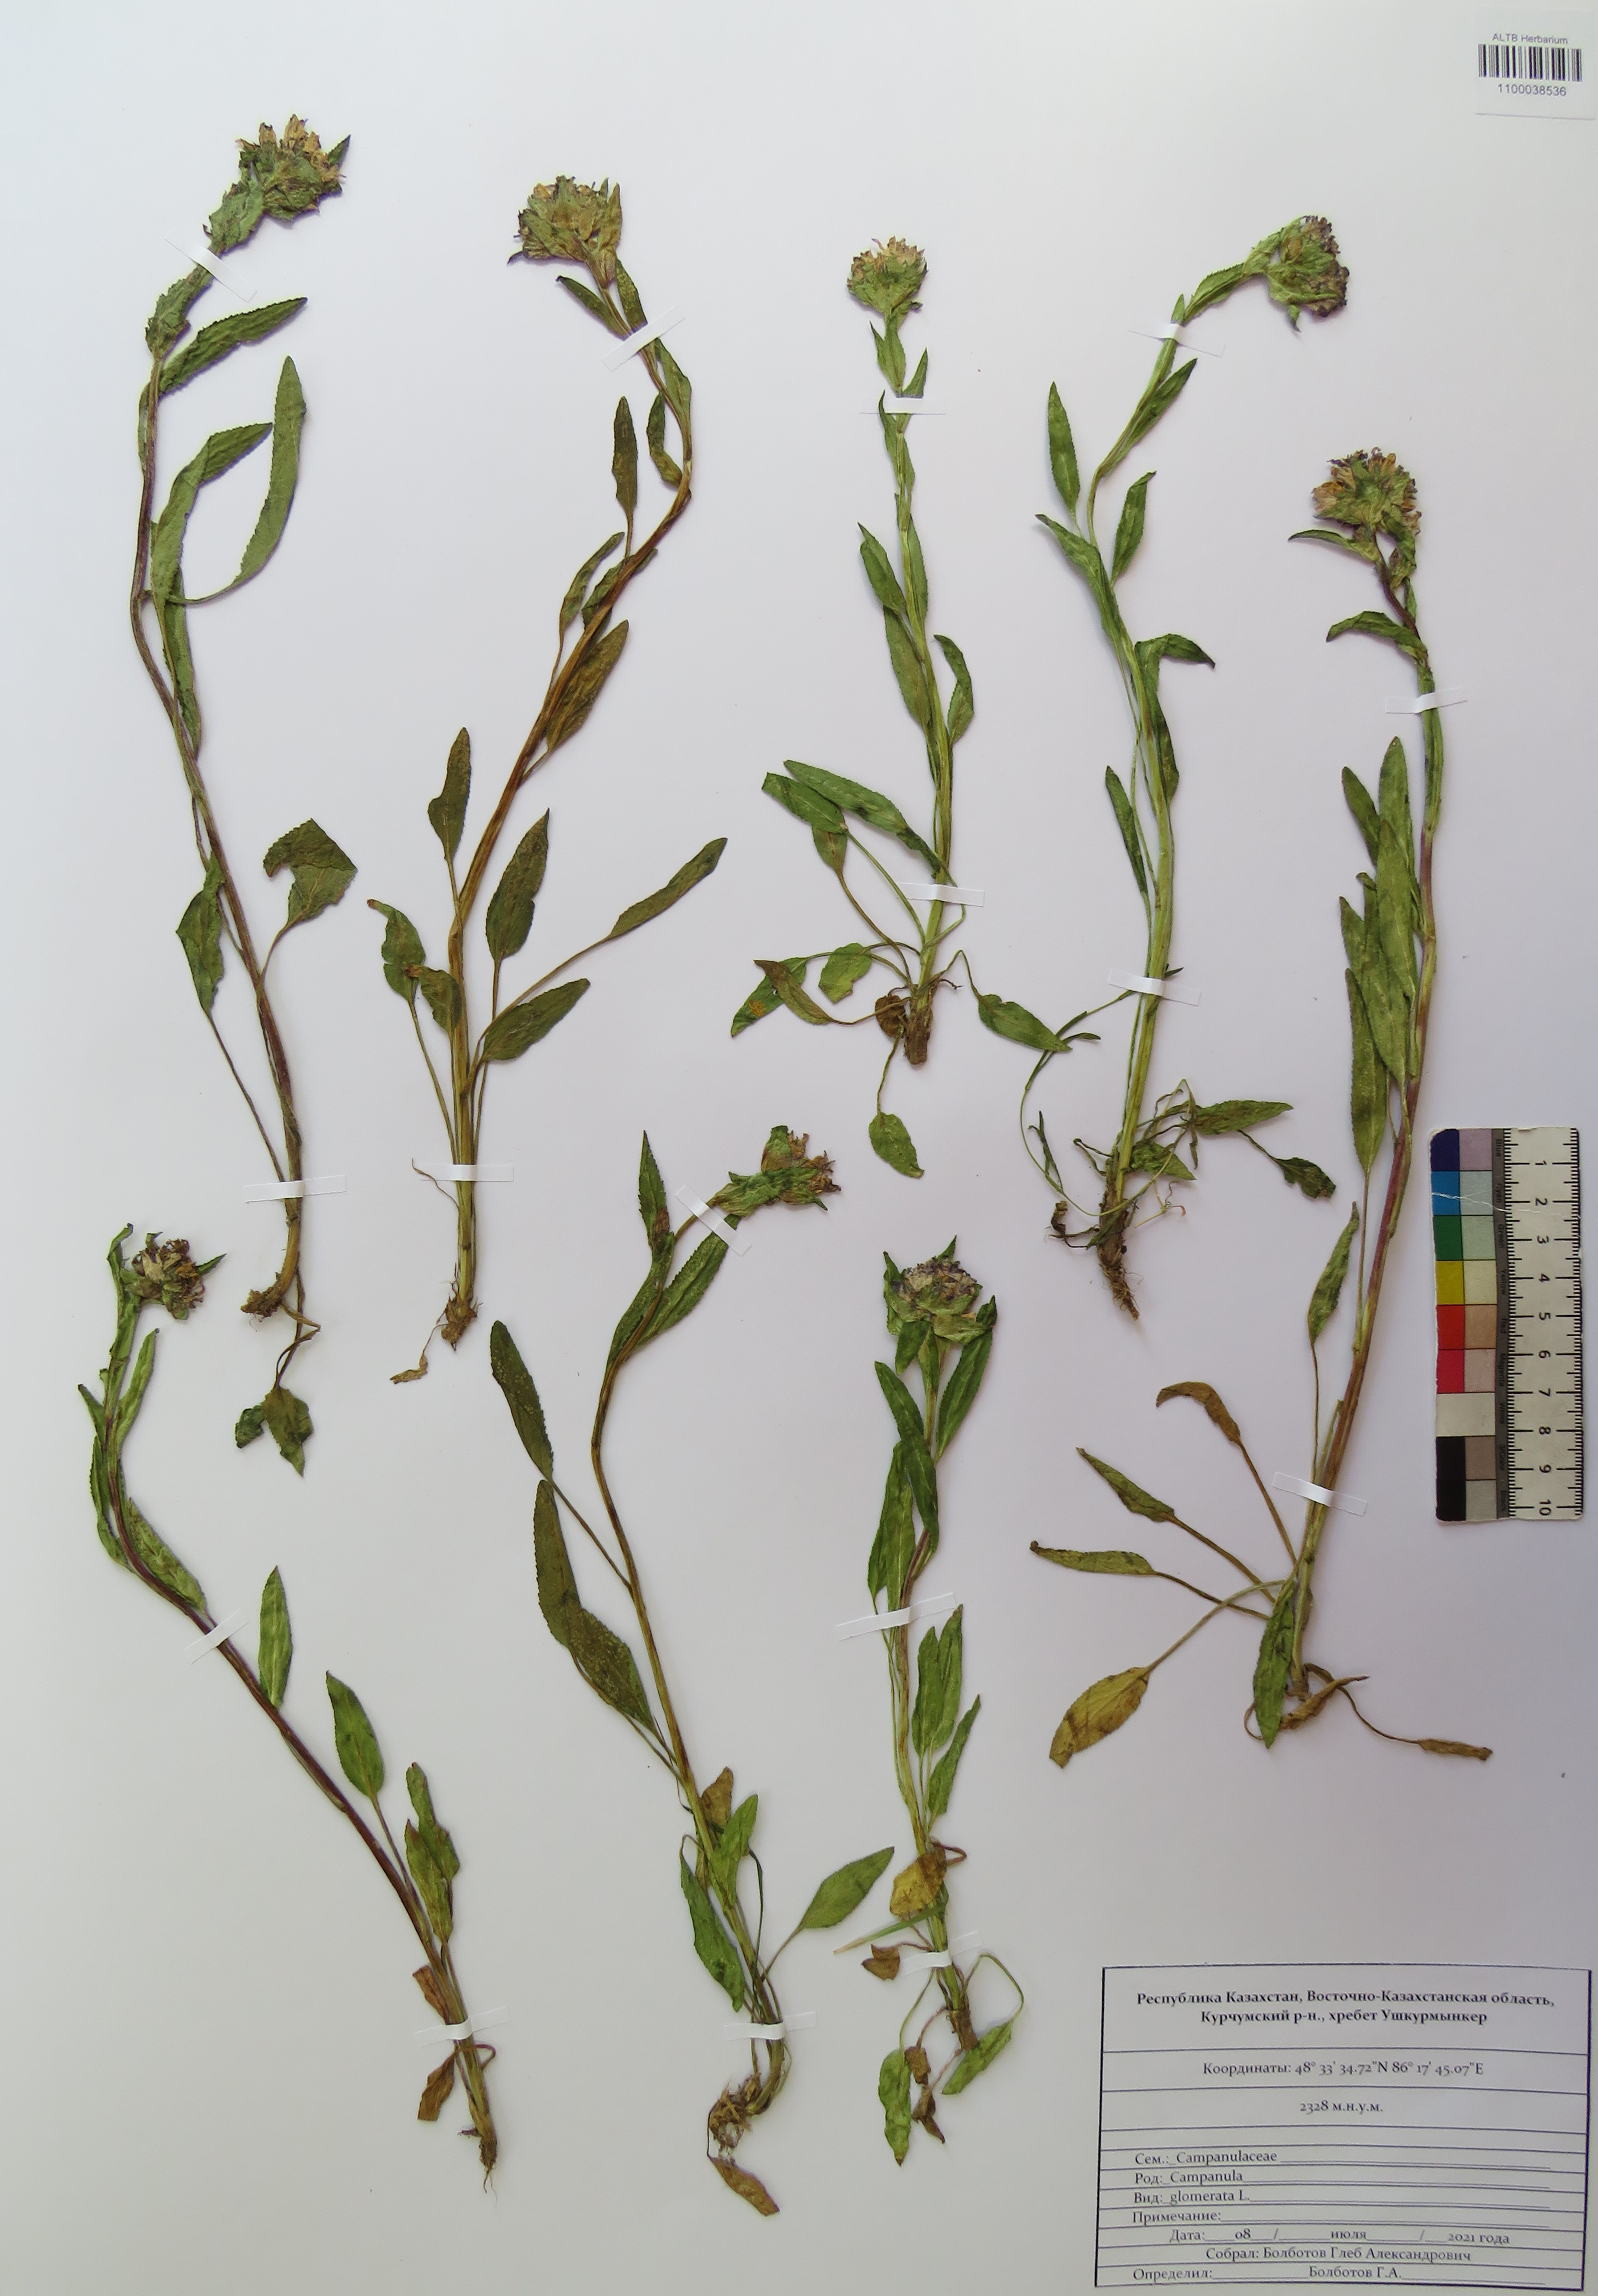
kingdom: Plantae
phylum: Tracheophyta
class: Magnoliopsida
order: Asterales
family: Campanulaceae
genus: Campanula
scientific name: Campanula glomerata
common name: Clustered bellflower
